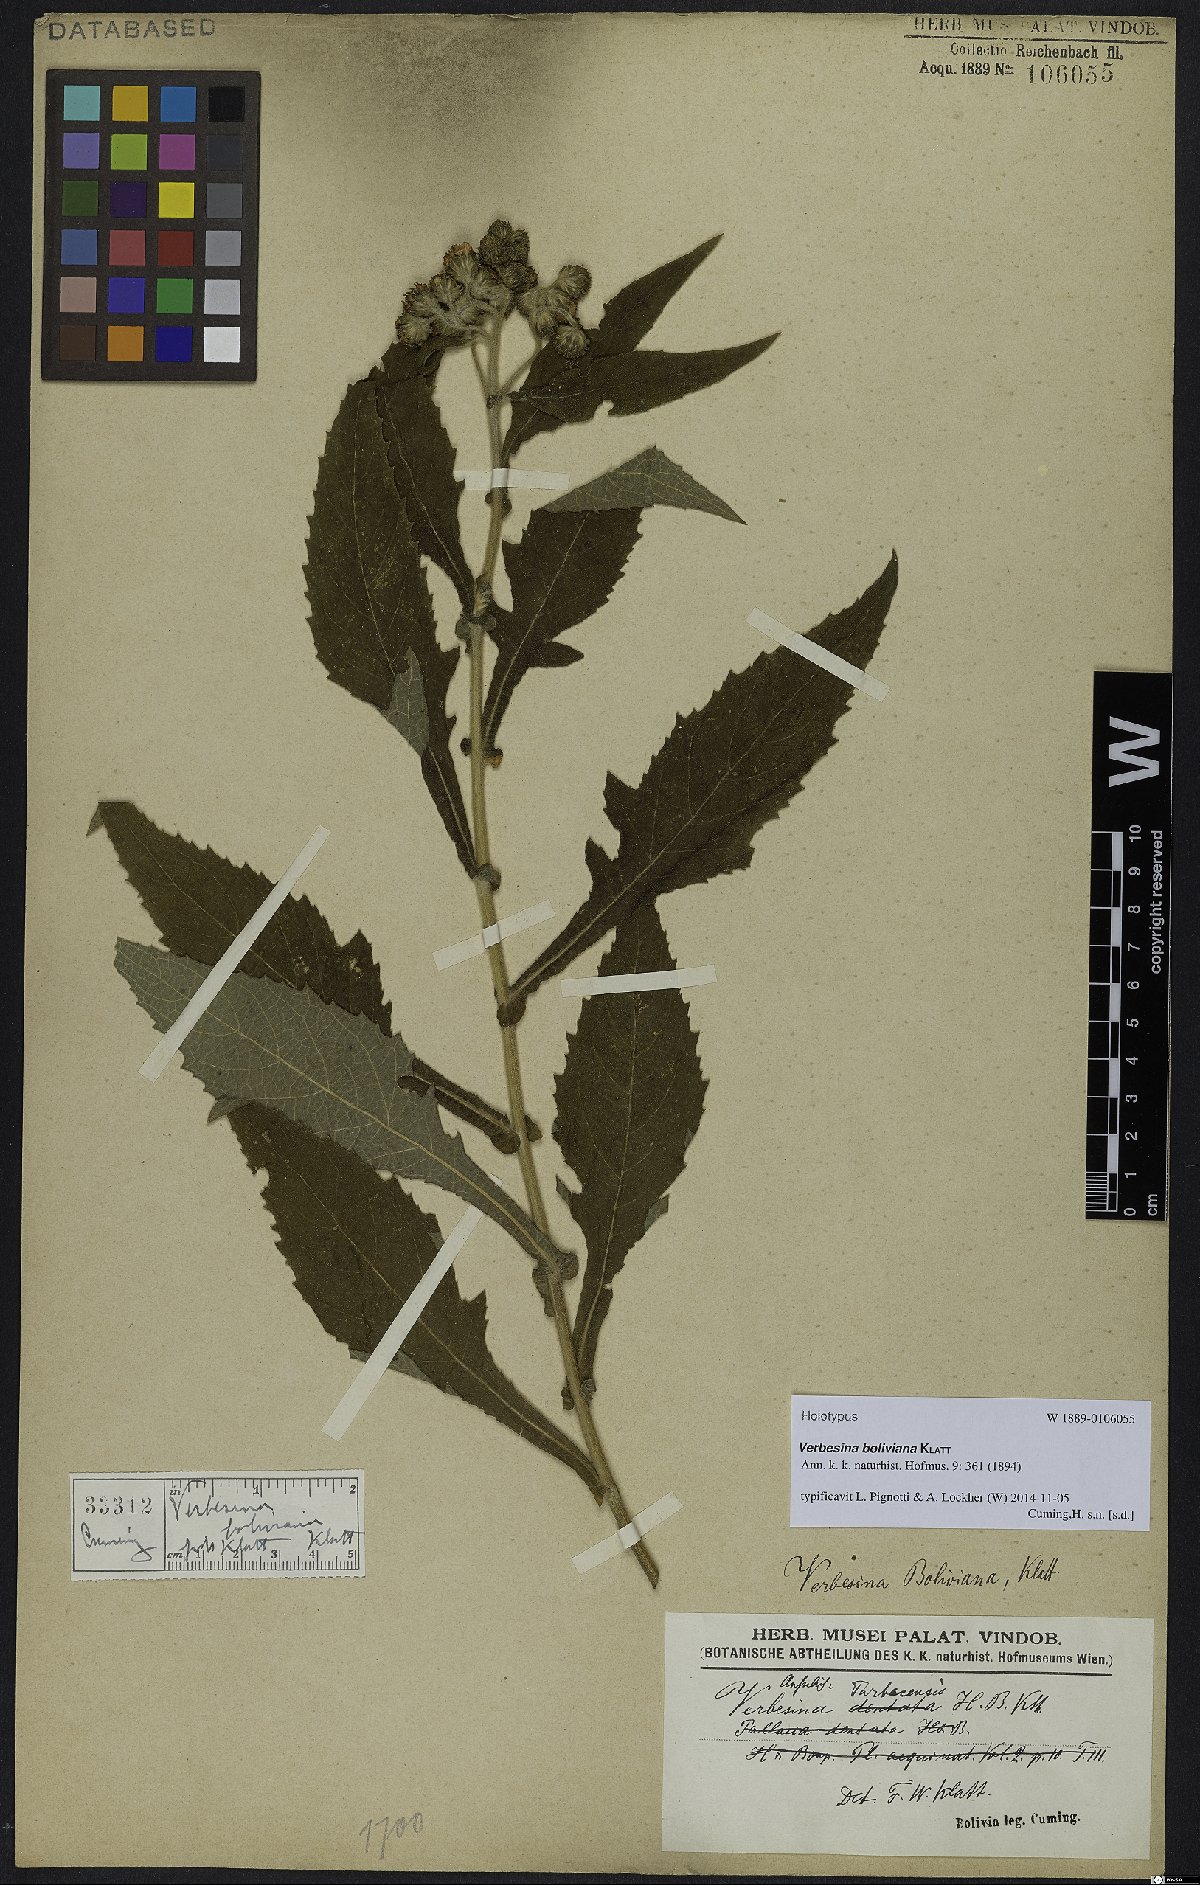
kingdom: Plantae
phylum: Tracheophyta
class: Magnoliopsida
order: Asterales
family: Asteraceae
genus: Verbesina
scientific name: Verbesina boliviana
